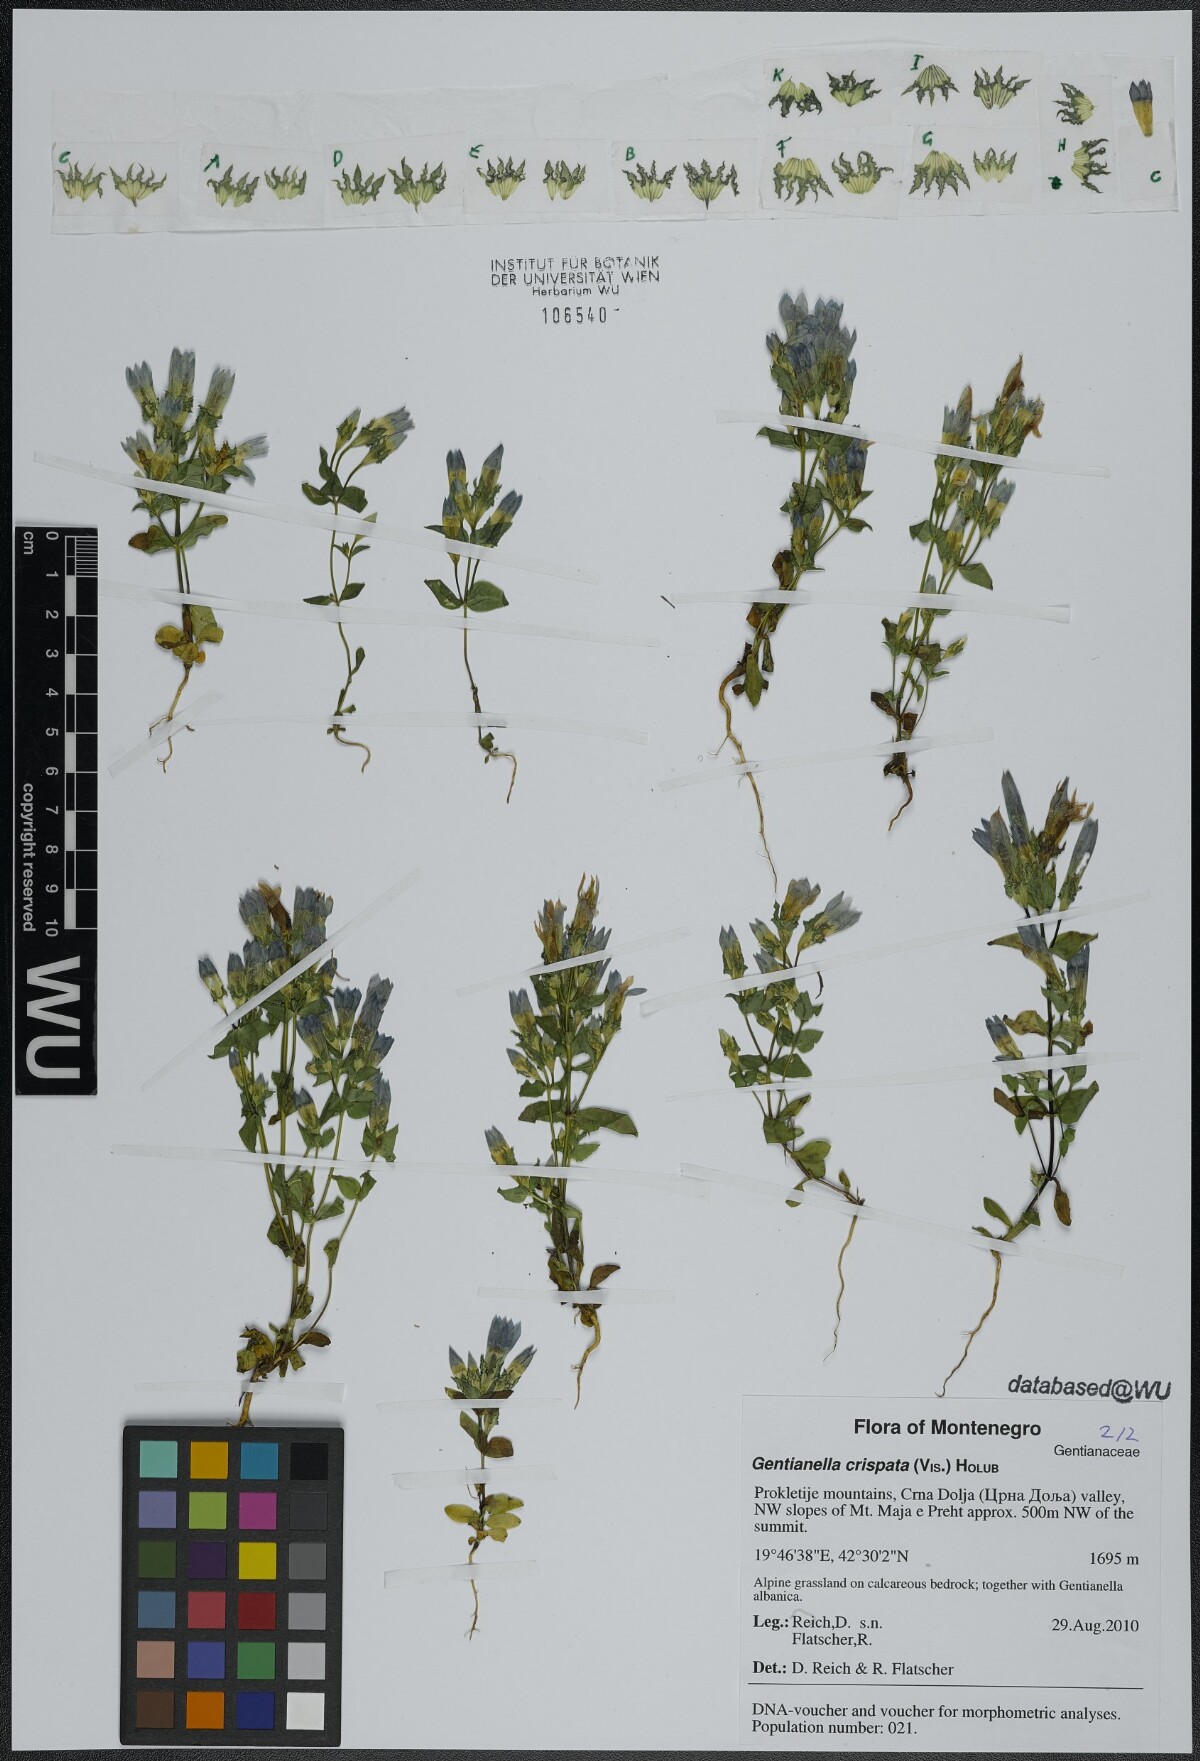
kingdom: Plantae
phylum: Tracheophyta
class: Magnoliopsida
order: Gentianales
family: Gentianaceae
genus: Gentianella
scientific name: Gentianella crispata
